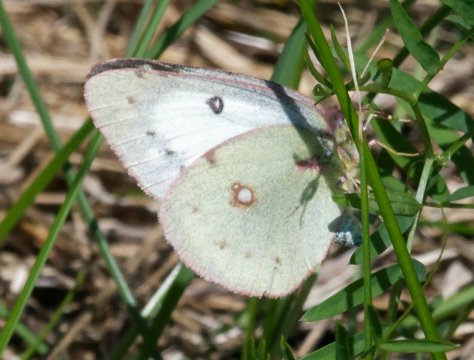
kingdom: Animalia
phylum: Arthropoda
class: Insecta
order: Lepidoptera
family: Pieridae
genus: Colias
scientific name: Colias philodice
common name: Clouded Sulphur
